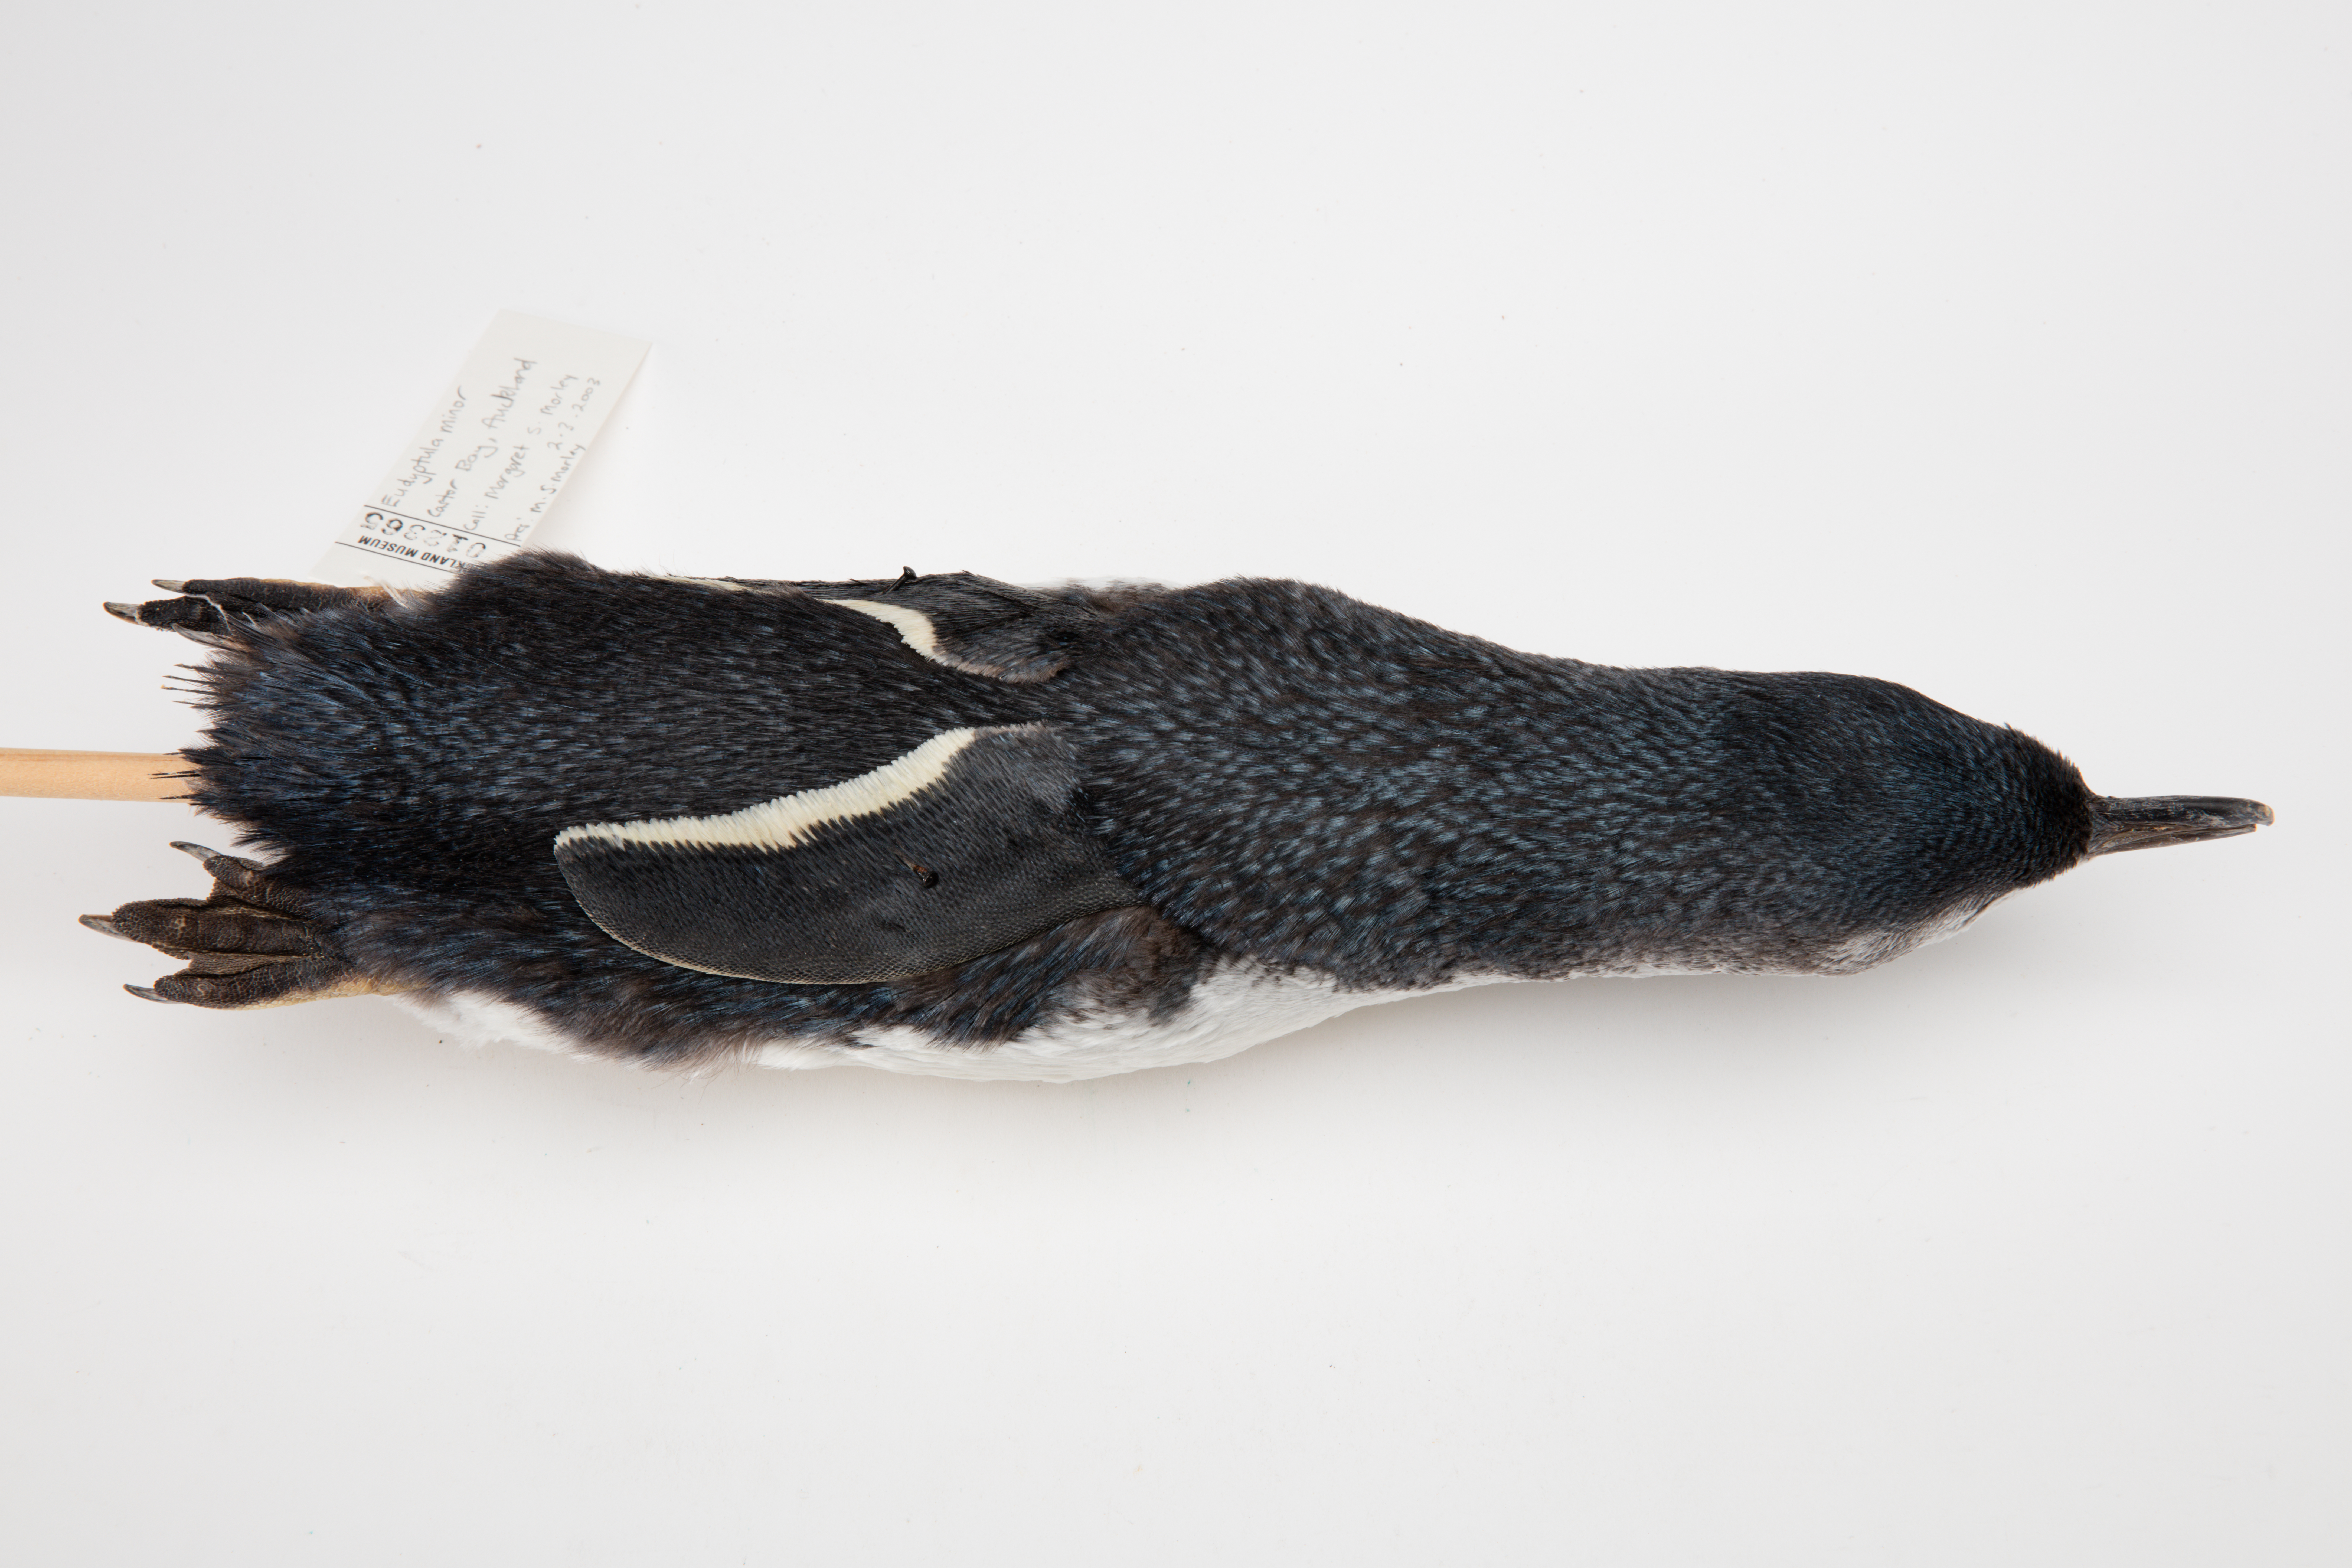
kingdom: Animalia
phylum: Chordata
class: Aves
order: Sphenisciformes
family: Spheniscidae
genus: Eudyptula
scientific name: Eudyptula minor
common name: Little penguin
